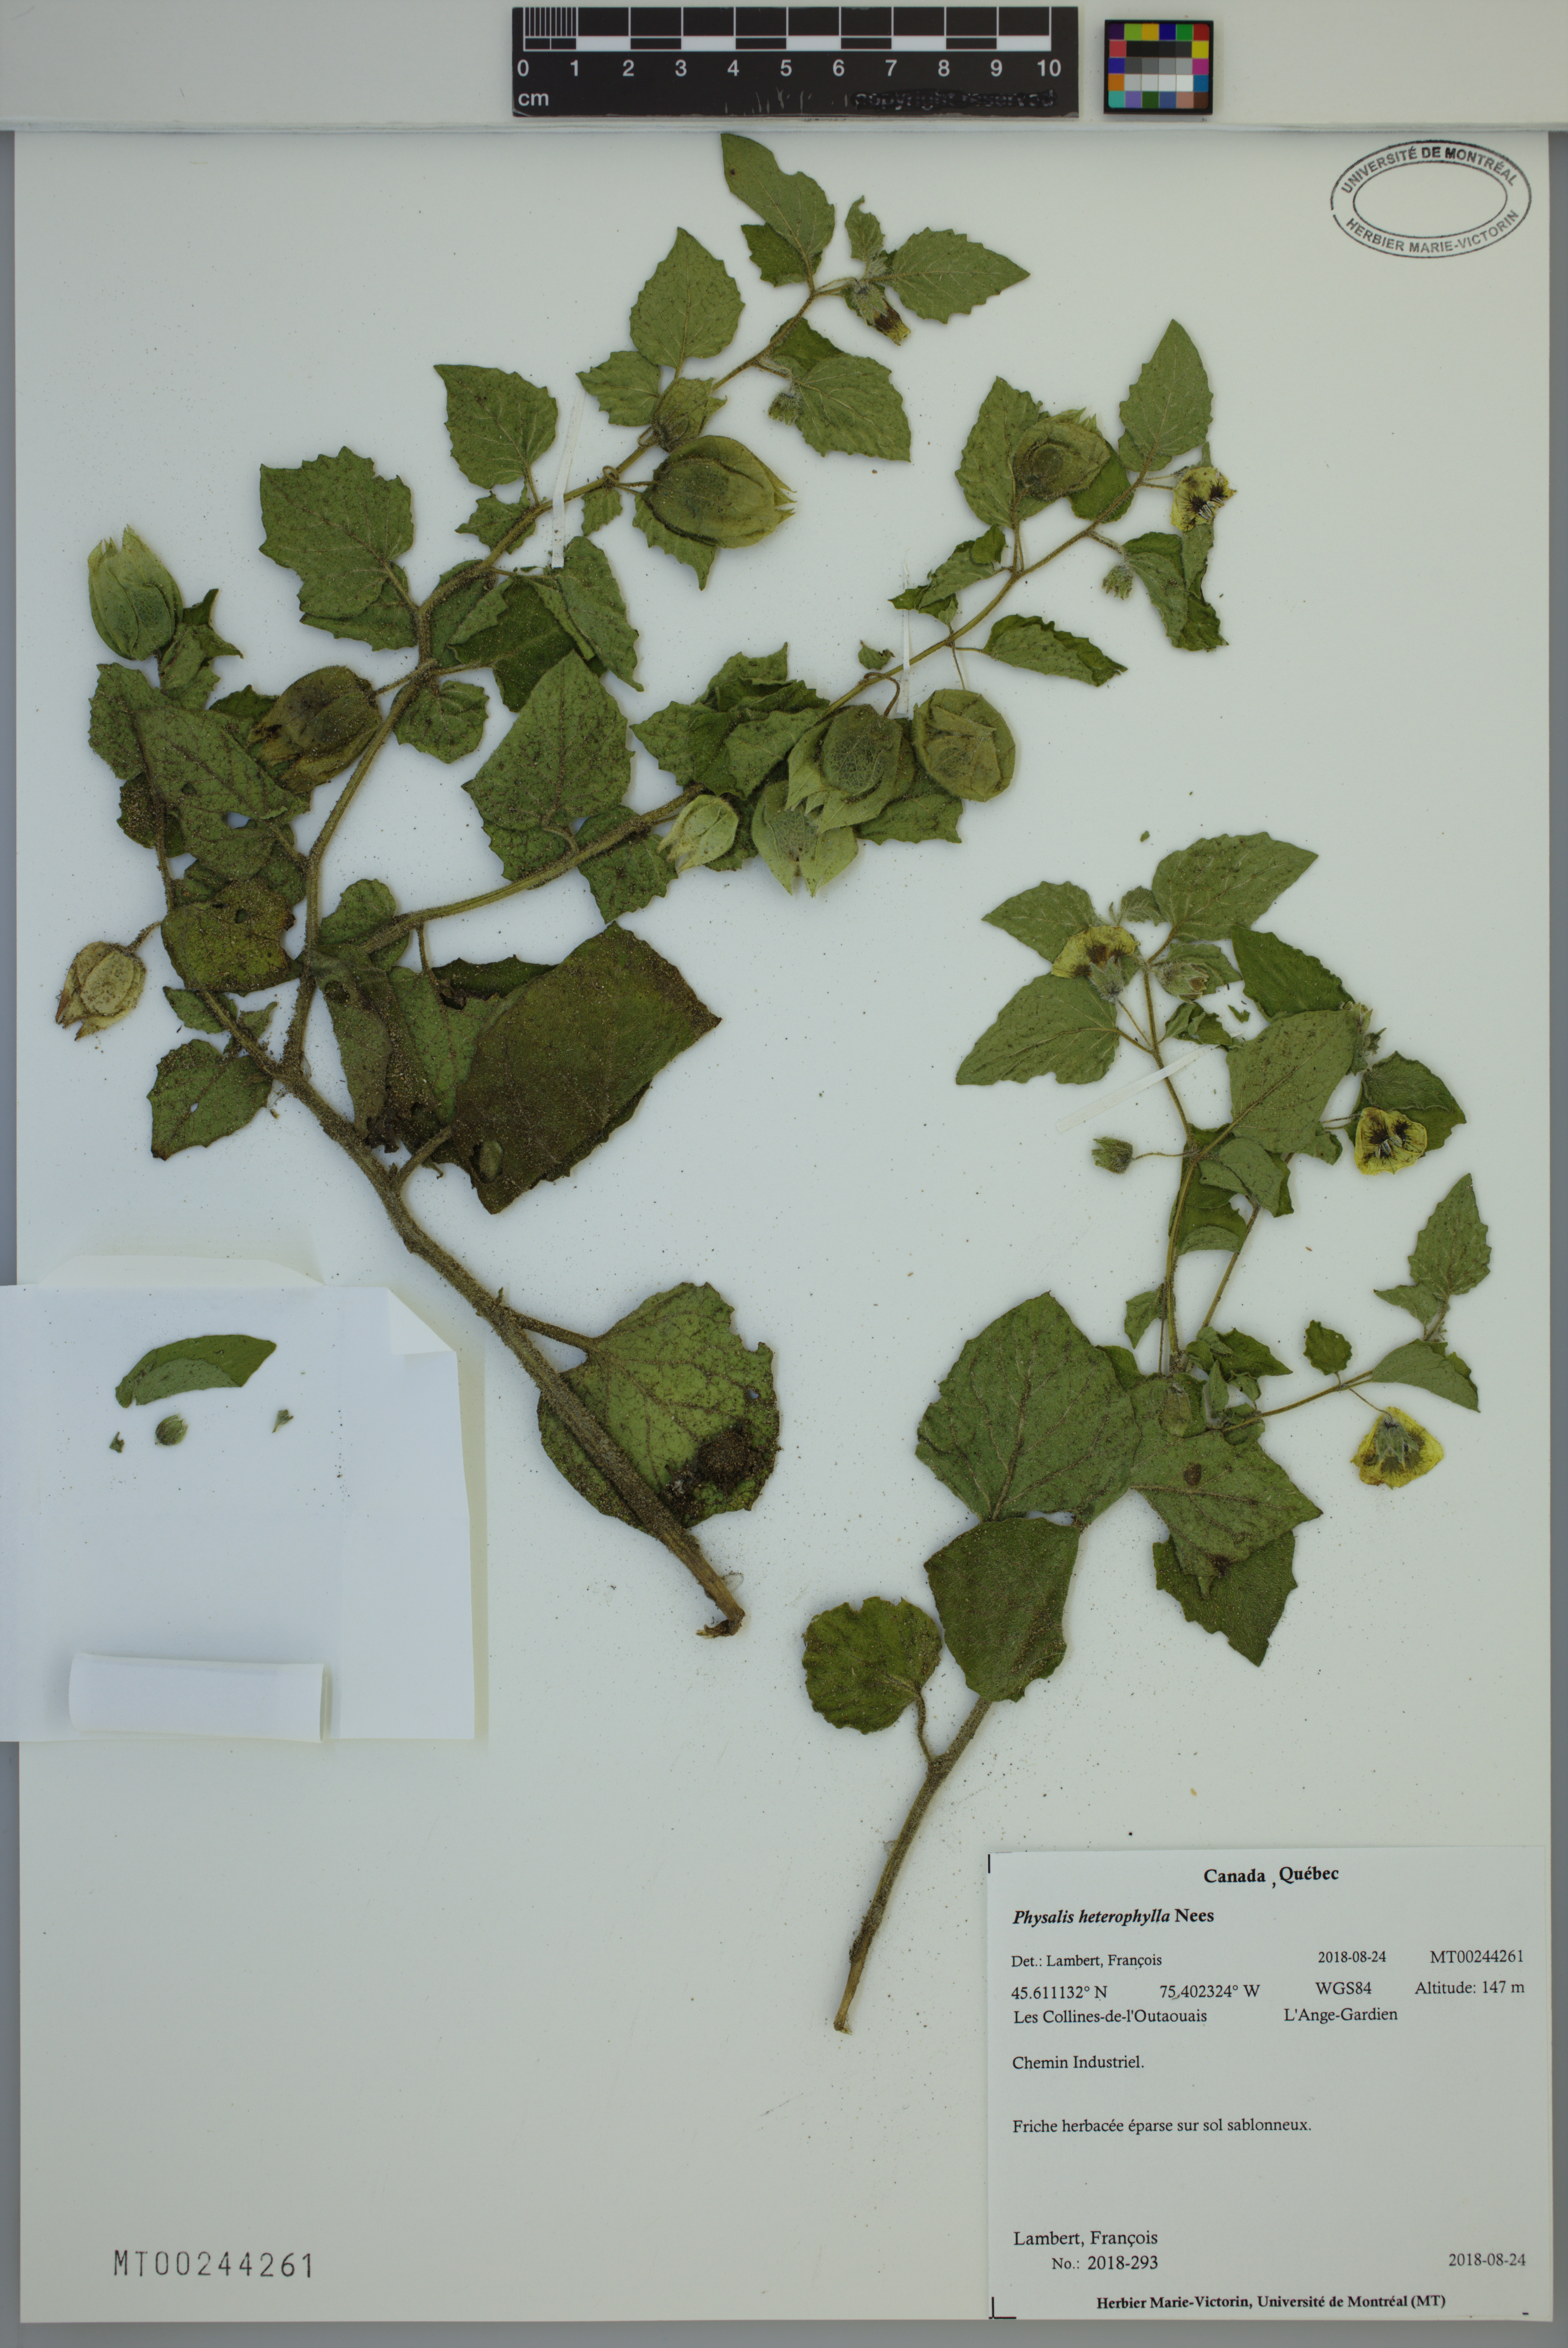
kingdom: Plantae
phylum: Tracheophyta
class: Magnoliopsida
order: Solanales
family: Solanaceae
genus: Physalis
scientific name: Physalis heterophylla
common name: Clammy ground-cherry
